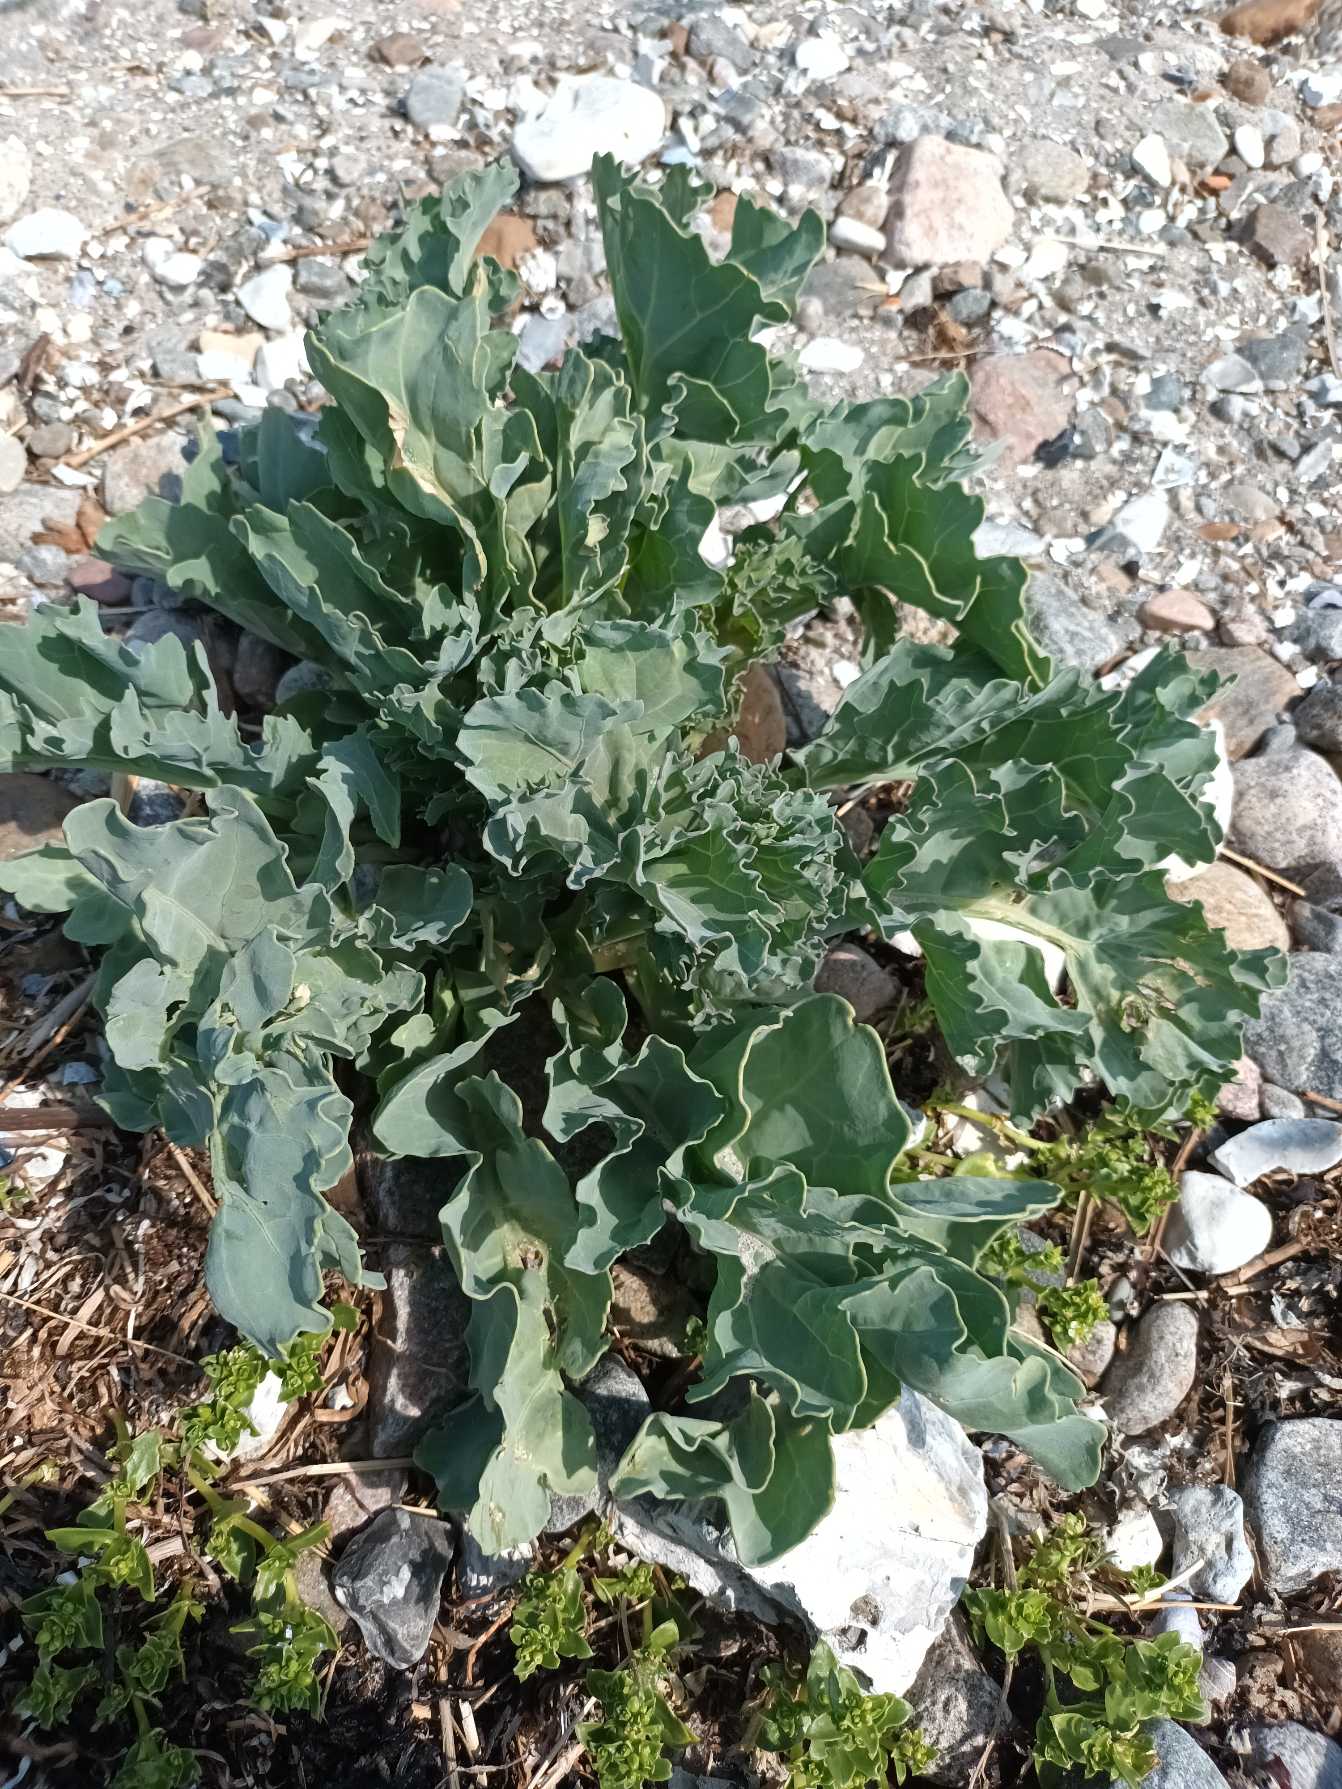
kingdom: Plantae
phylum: Tracheophyta
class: Magnoliopsida
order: Brassicales
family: Brassicaceae
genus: Crambe
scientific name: Crambe maritima
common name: Strandkål
